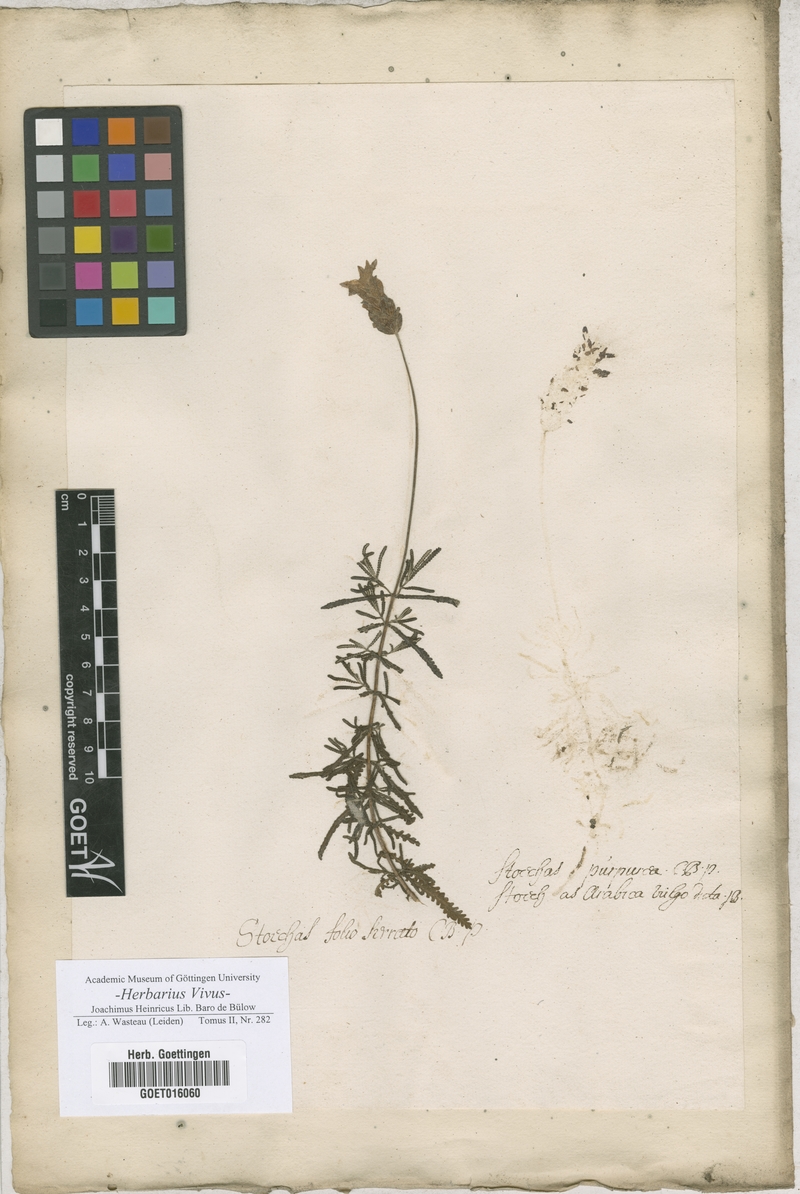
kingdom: Plantae
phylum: Tracheophyta
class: Magnoliopsida
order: Lamiales
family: Lamiaceae
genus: Lavandula
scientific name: Lavandula dentata
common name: French lavender
